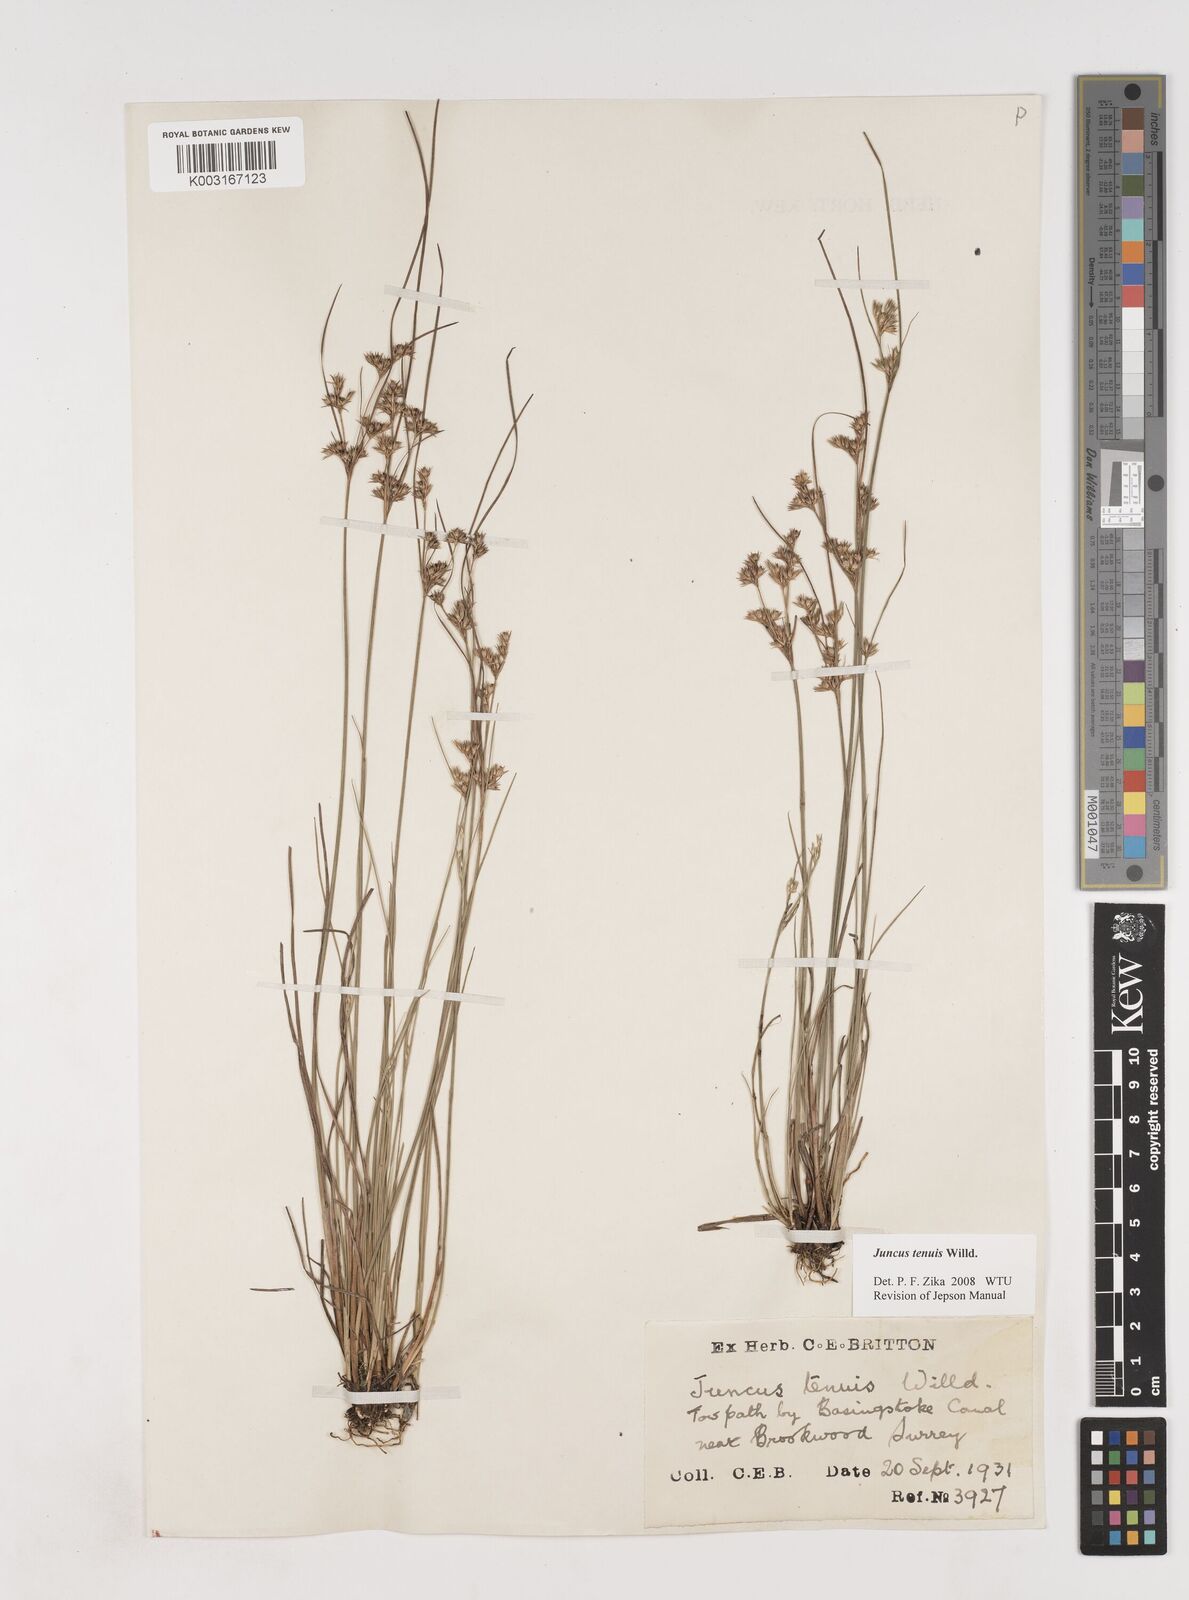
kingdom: Plantae
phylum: Tracheophyta
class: Liliopsida
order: Poales
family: Juncaceae
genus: Juncus
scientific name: Juncus tenuis
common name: Slender rush
